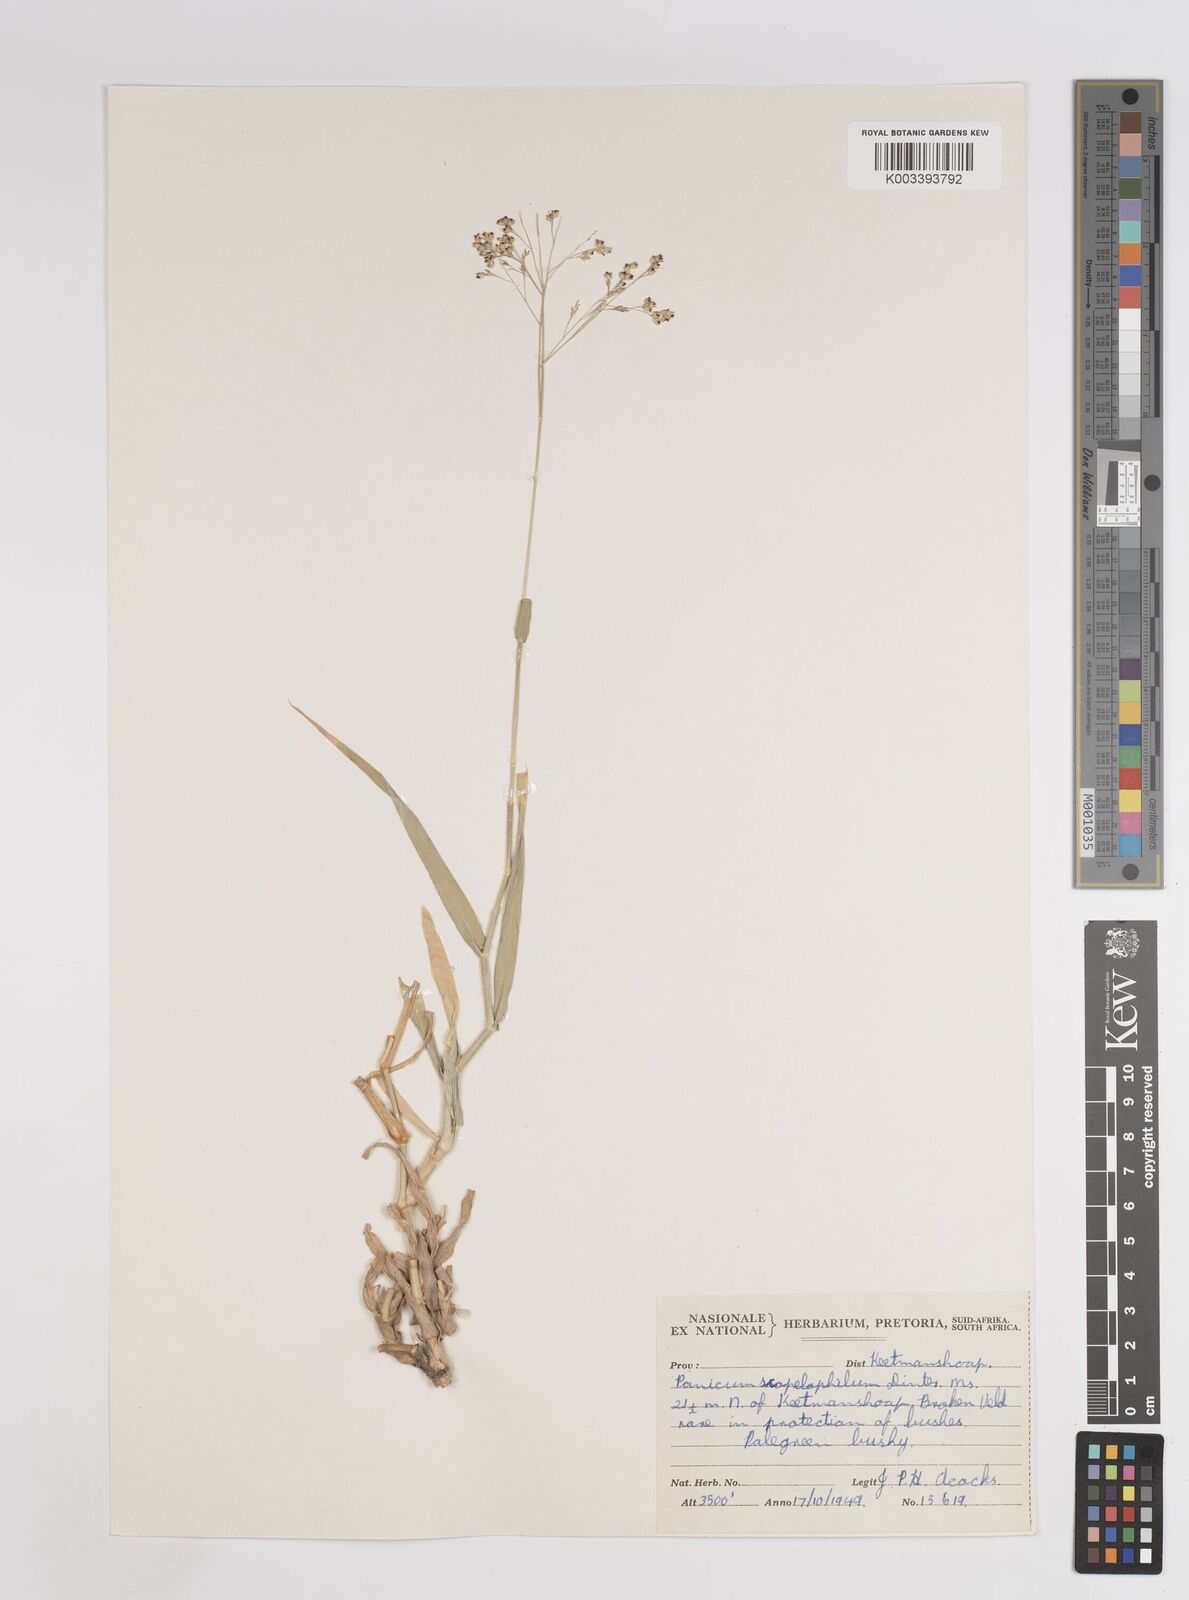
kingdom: Plantae
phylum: Tracheophyta
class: Liliopsida
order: Poales
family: Poaceae
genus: Panicum
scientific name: Panicum
